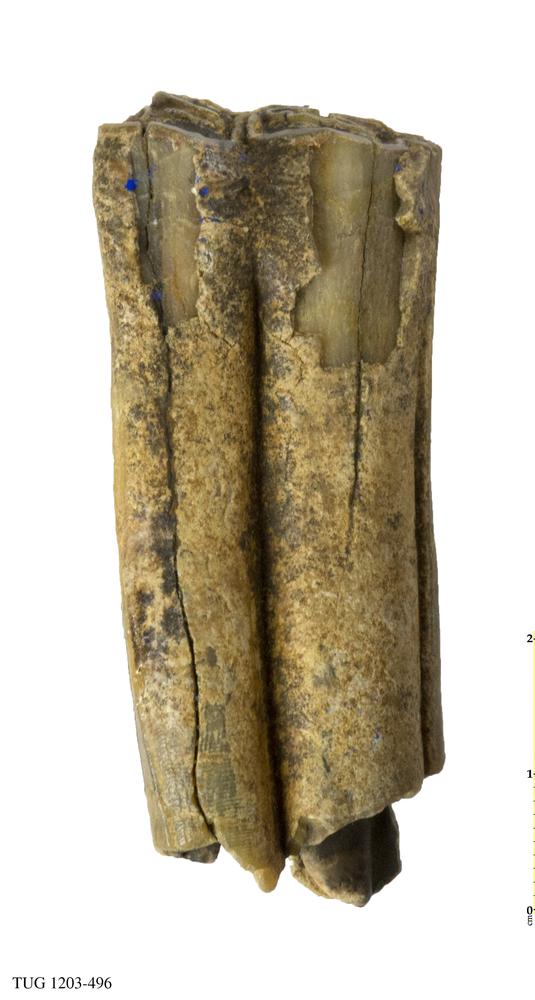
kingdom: Animalia
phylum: Chordata
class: Mammalia
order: Artiodactyla
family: Bovidae
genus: Bos
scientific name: Bos
